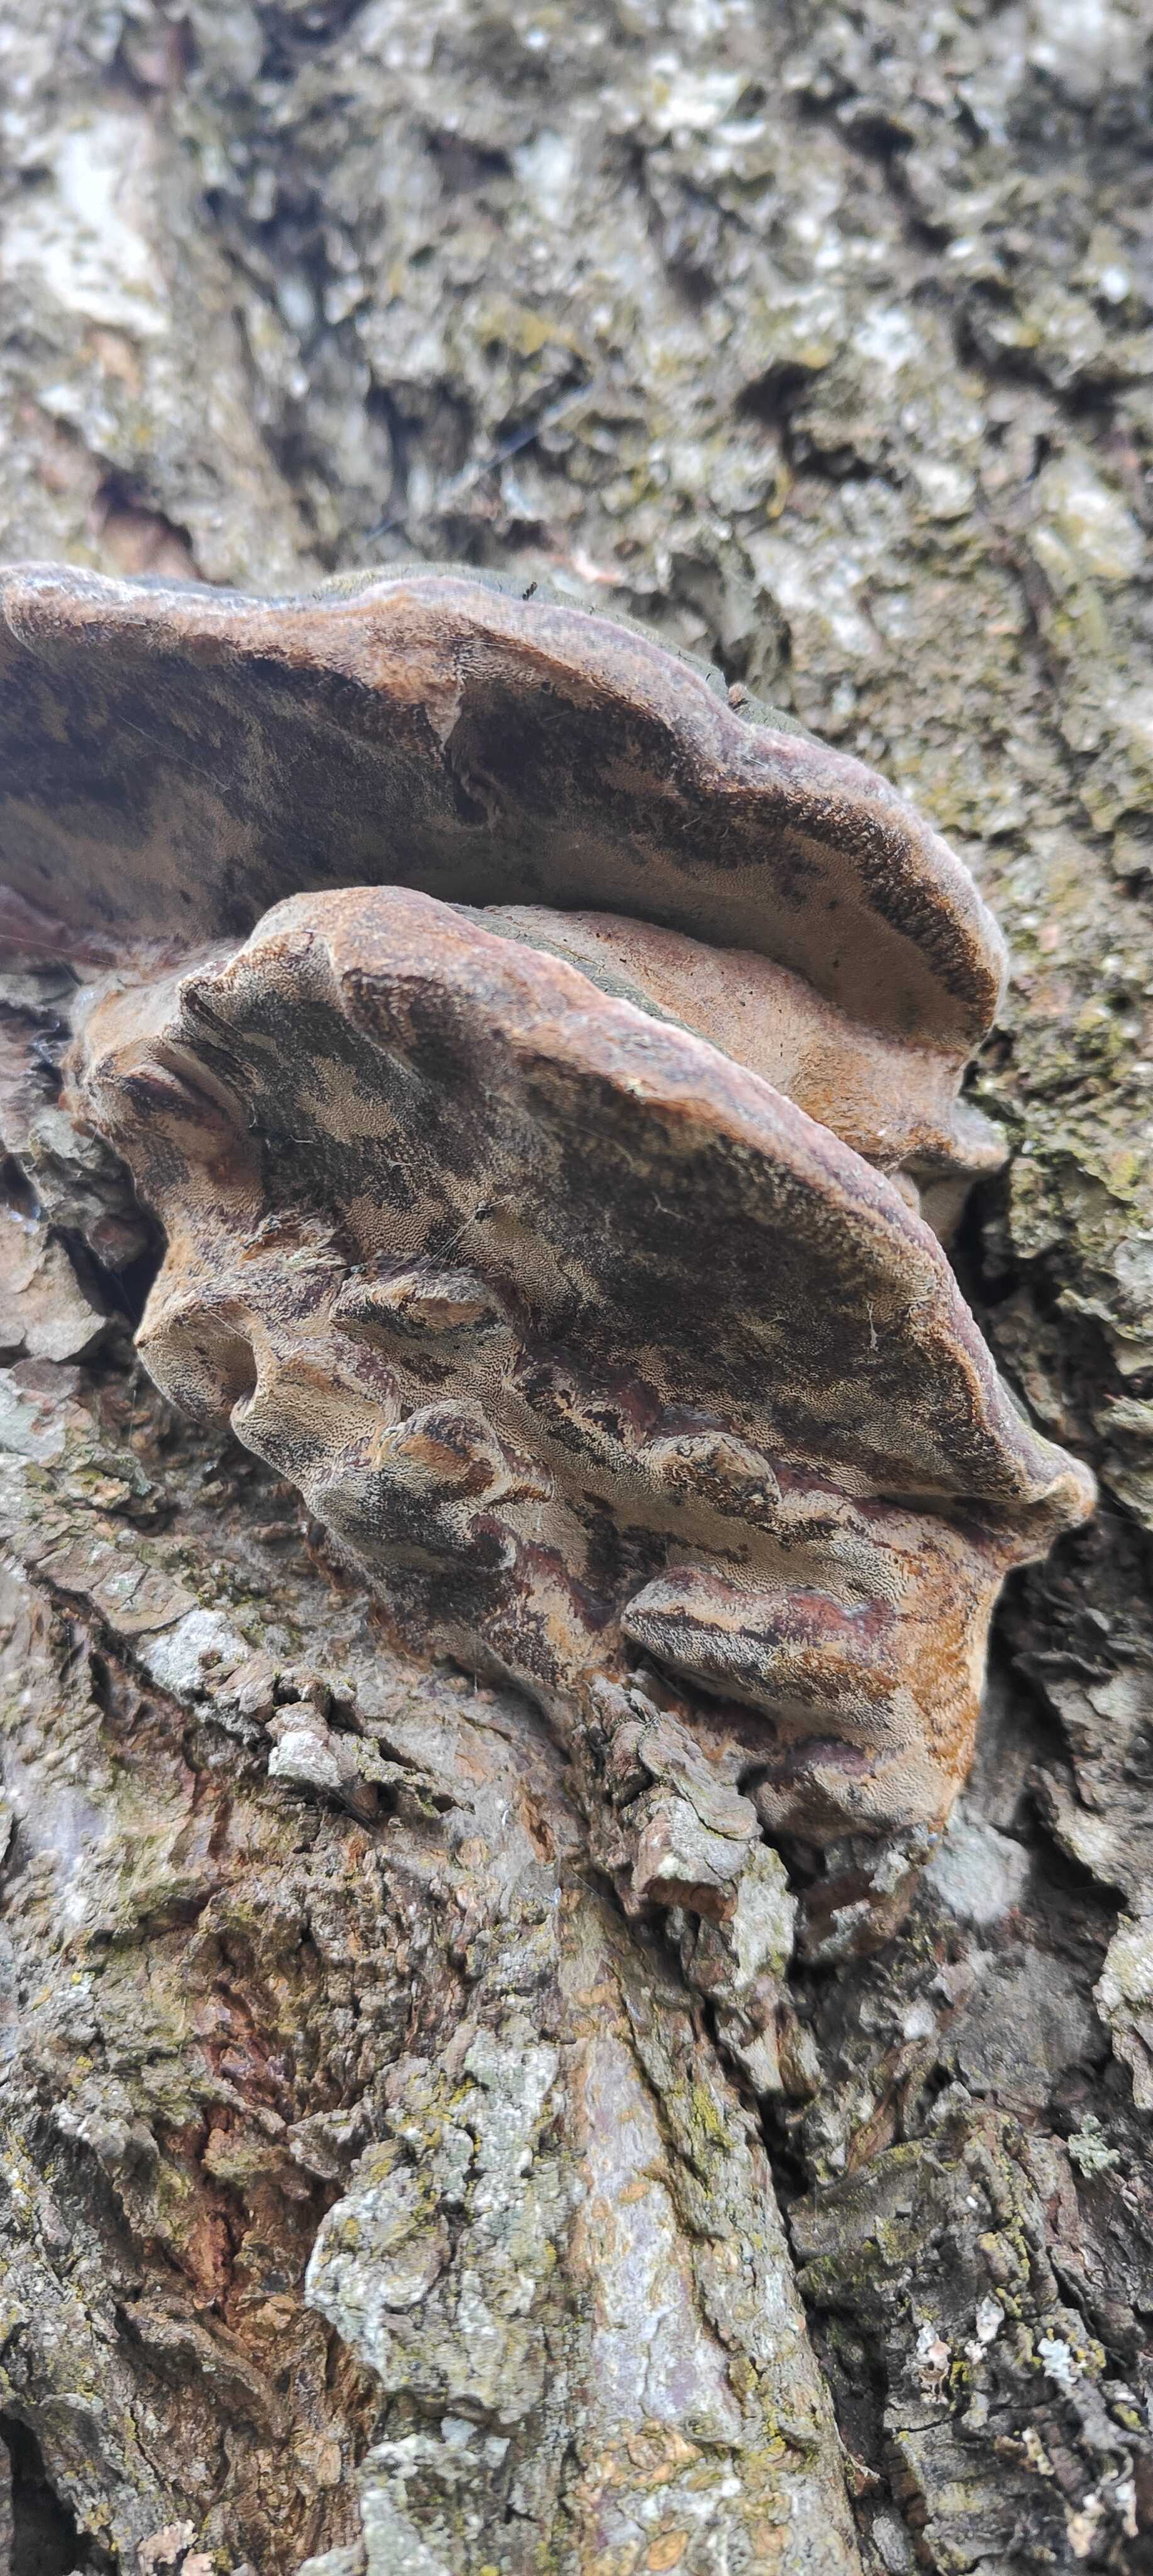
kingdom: Fungi
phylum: Basidiomycota
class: Agaricomycetes
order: Hymenochaetales
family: Hymenochaetaceae
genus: Phellinus
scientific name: Phellinus pomaceus
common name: blomme-ildporesvamp
